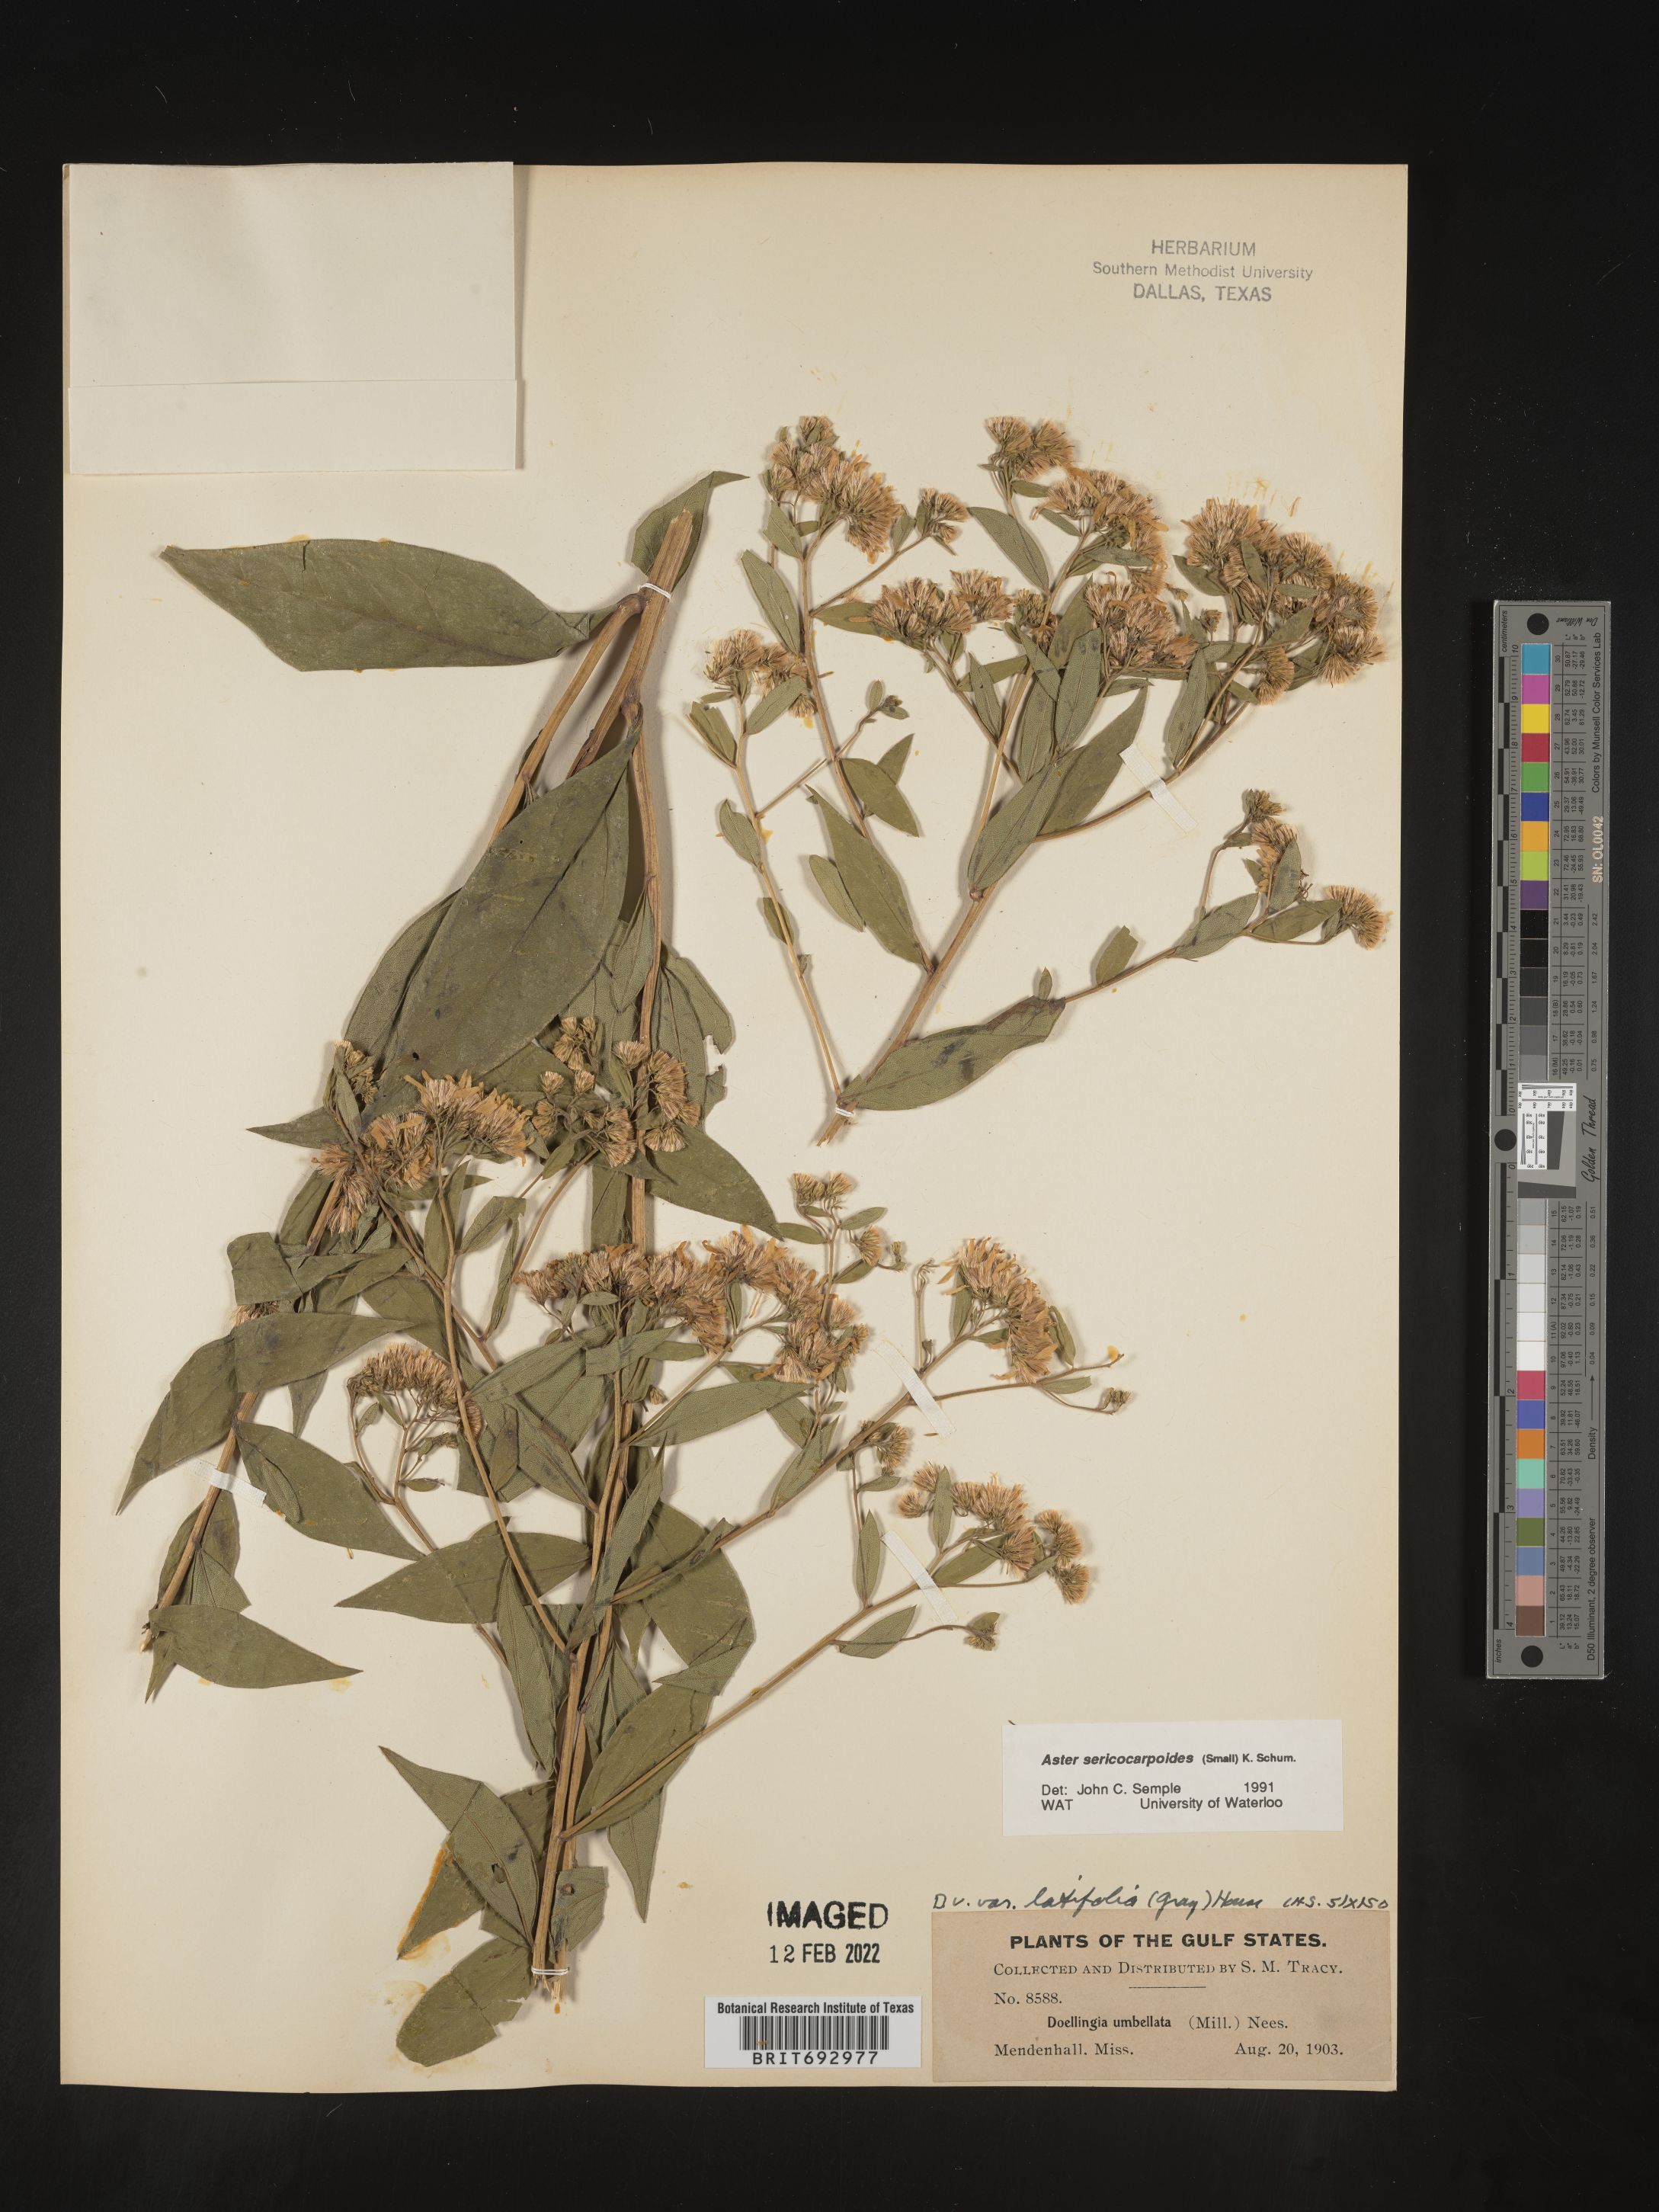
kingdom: Plantae
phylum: Tracheophyta
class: Magnoliopsida
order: Asterales
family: Asteraceae
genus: Doellingeria
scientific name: Doellingeria sericocarpoides
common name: Southern tall flat-top aster
